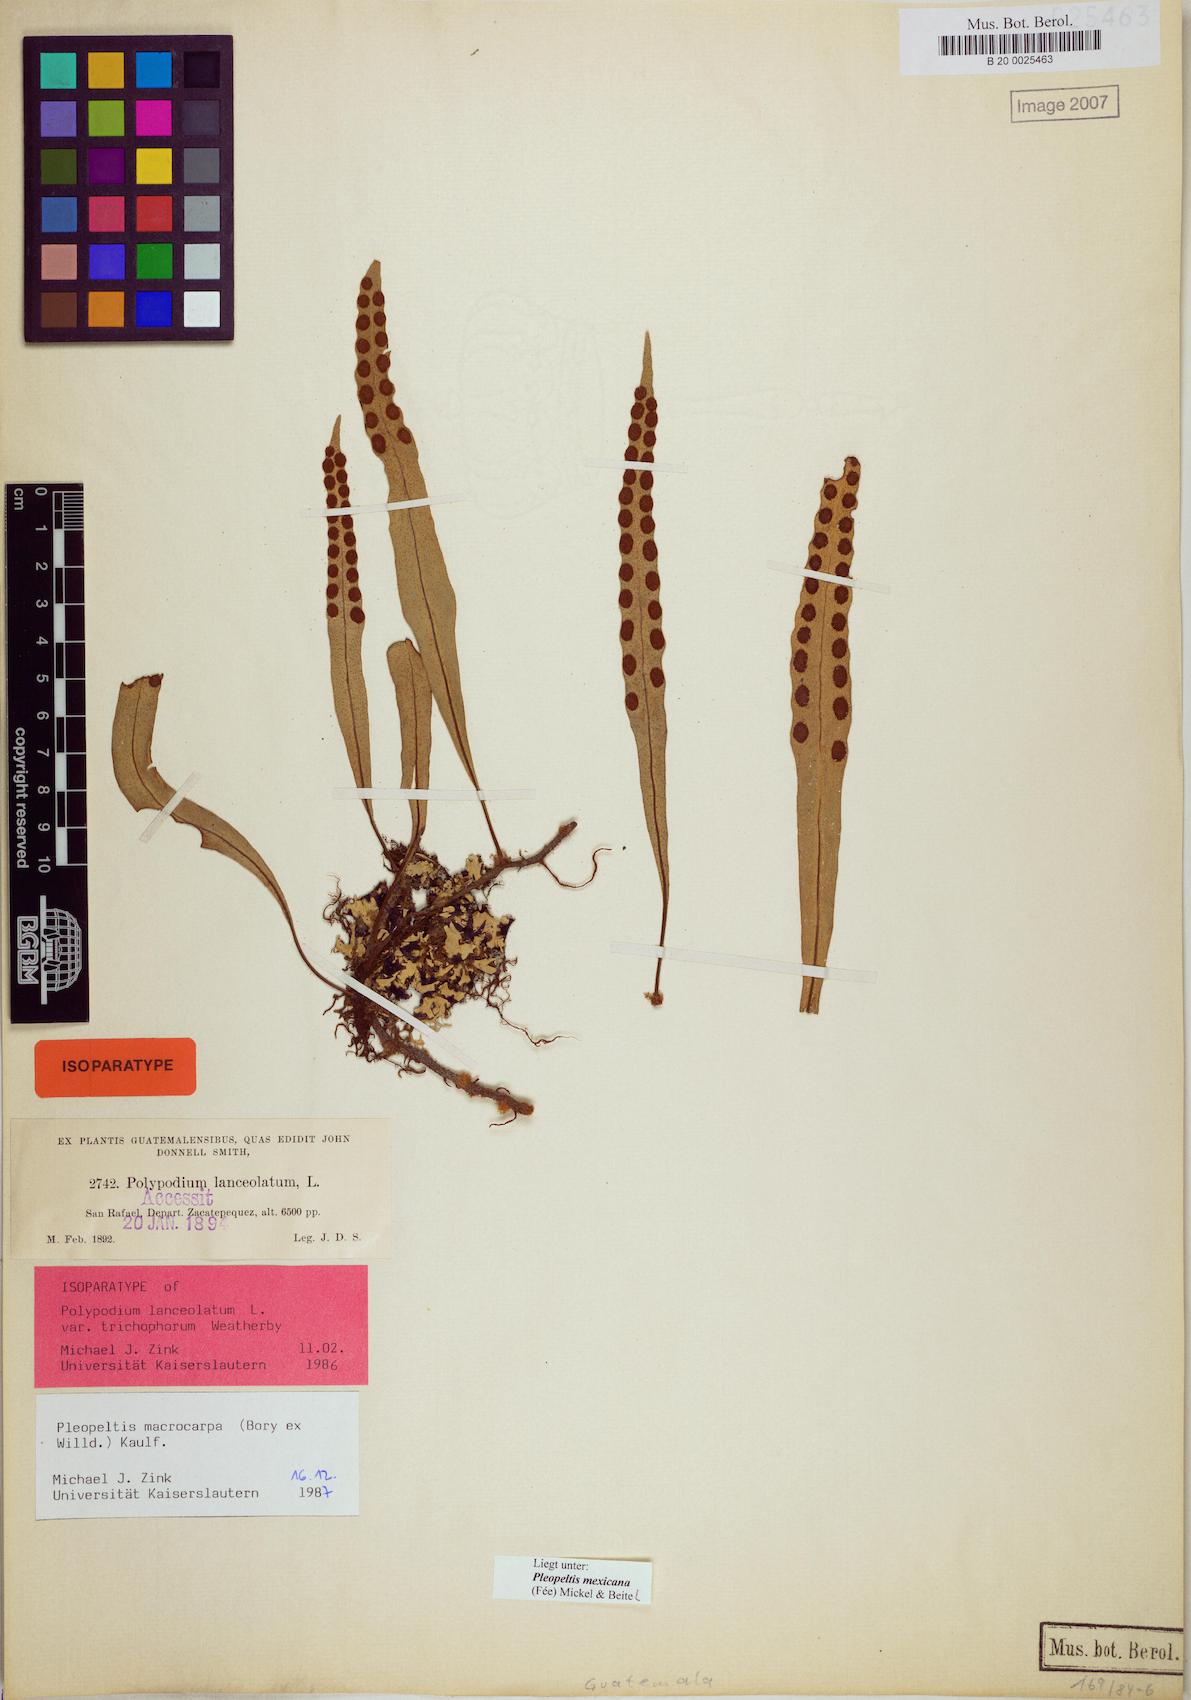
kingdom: Plantae
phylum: Tracheophyta
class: Polypodiopsida
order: Polypodiales
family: Polypodiaceae
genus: Pleopeltis
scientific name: Pleopeltis mexicana
